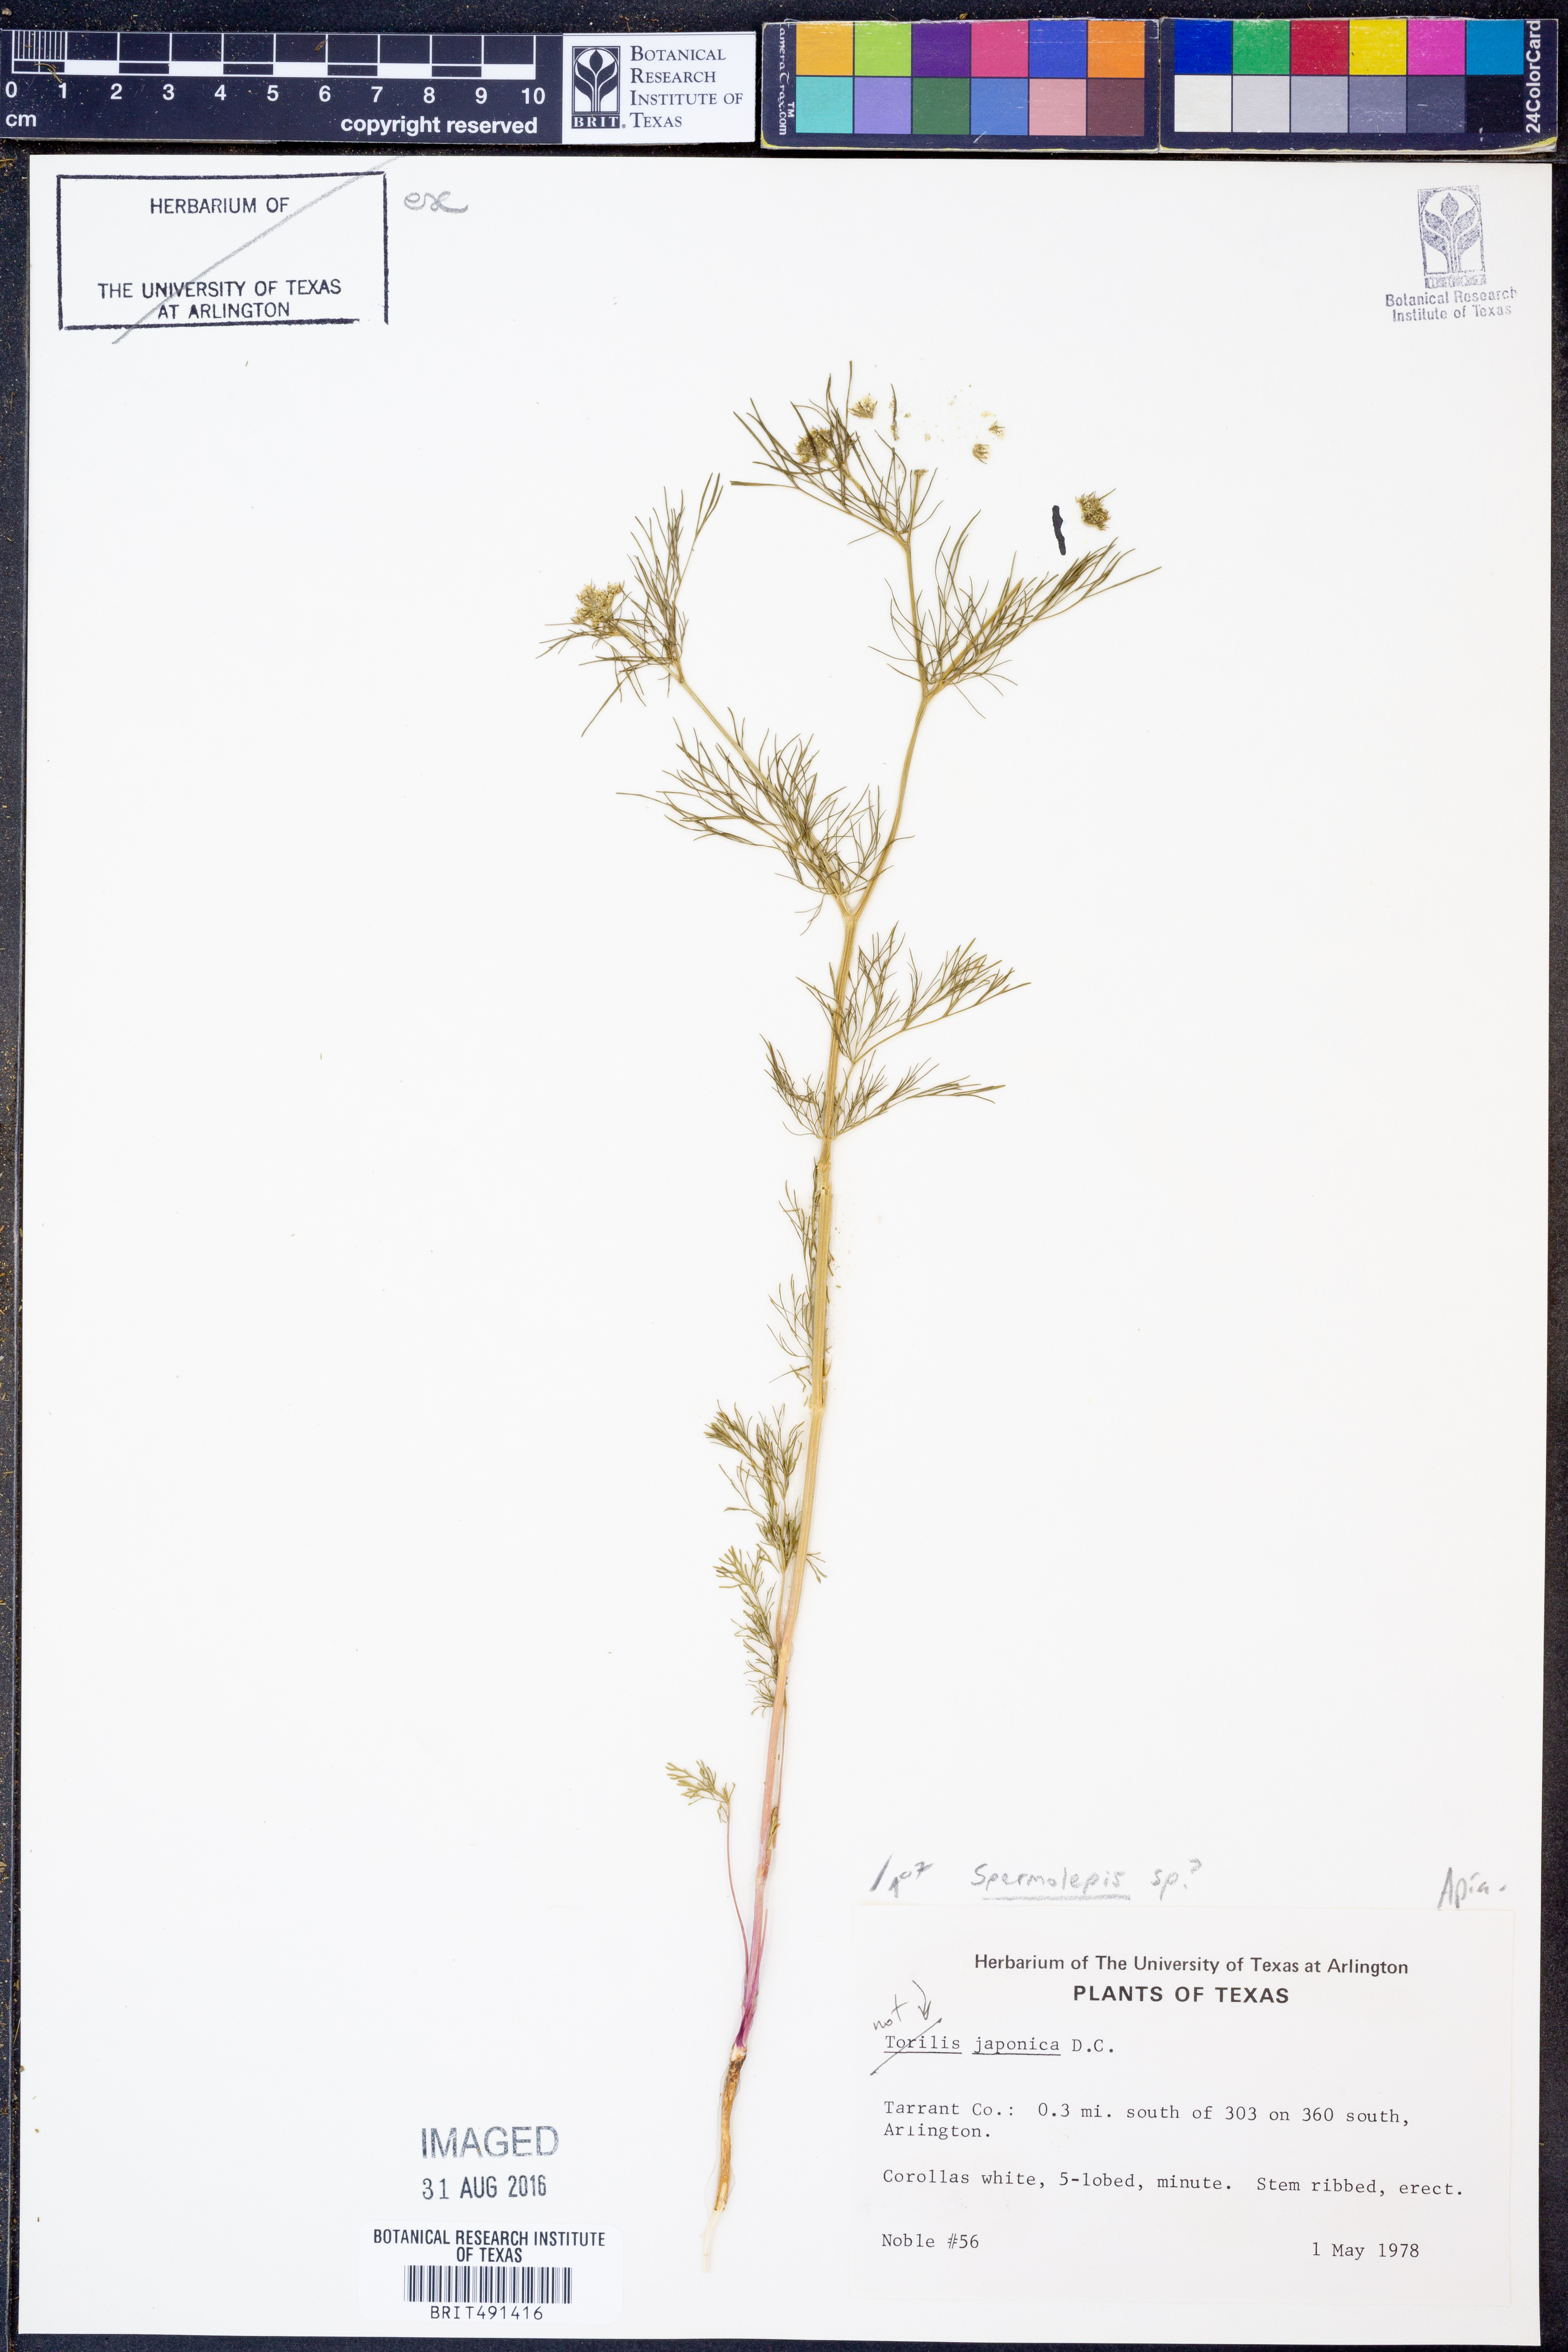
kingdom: Plantae
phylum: Tracheophyta
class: Magnoliopsida
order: Apiales
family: Apiaceae
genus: Spermolepis
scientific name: Spermolepis
